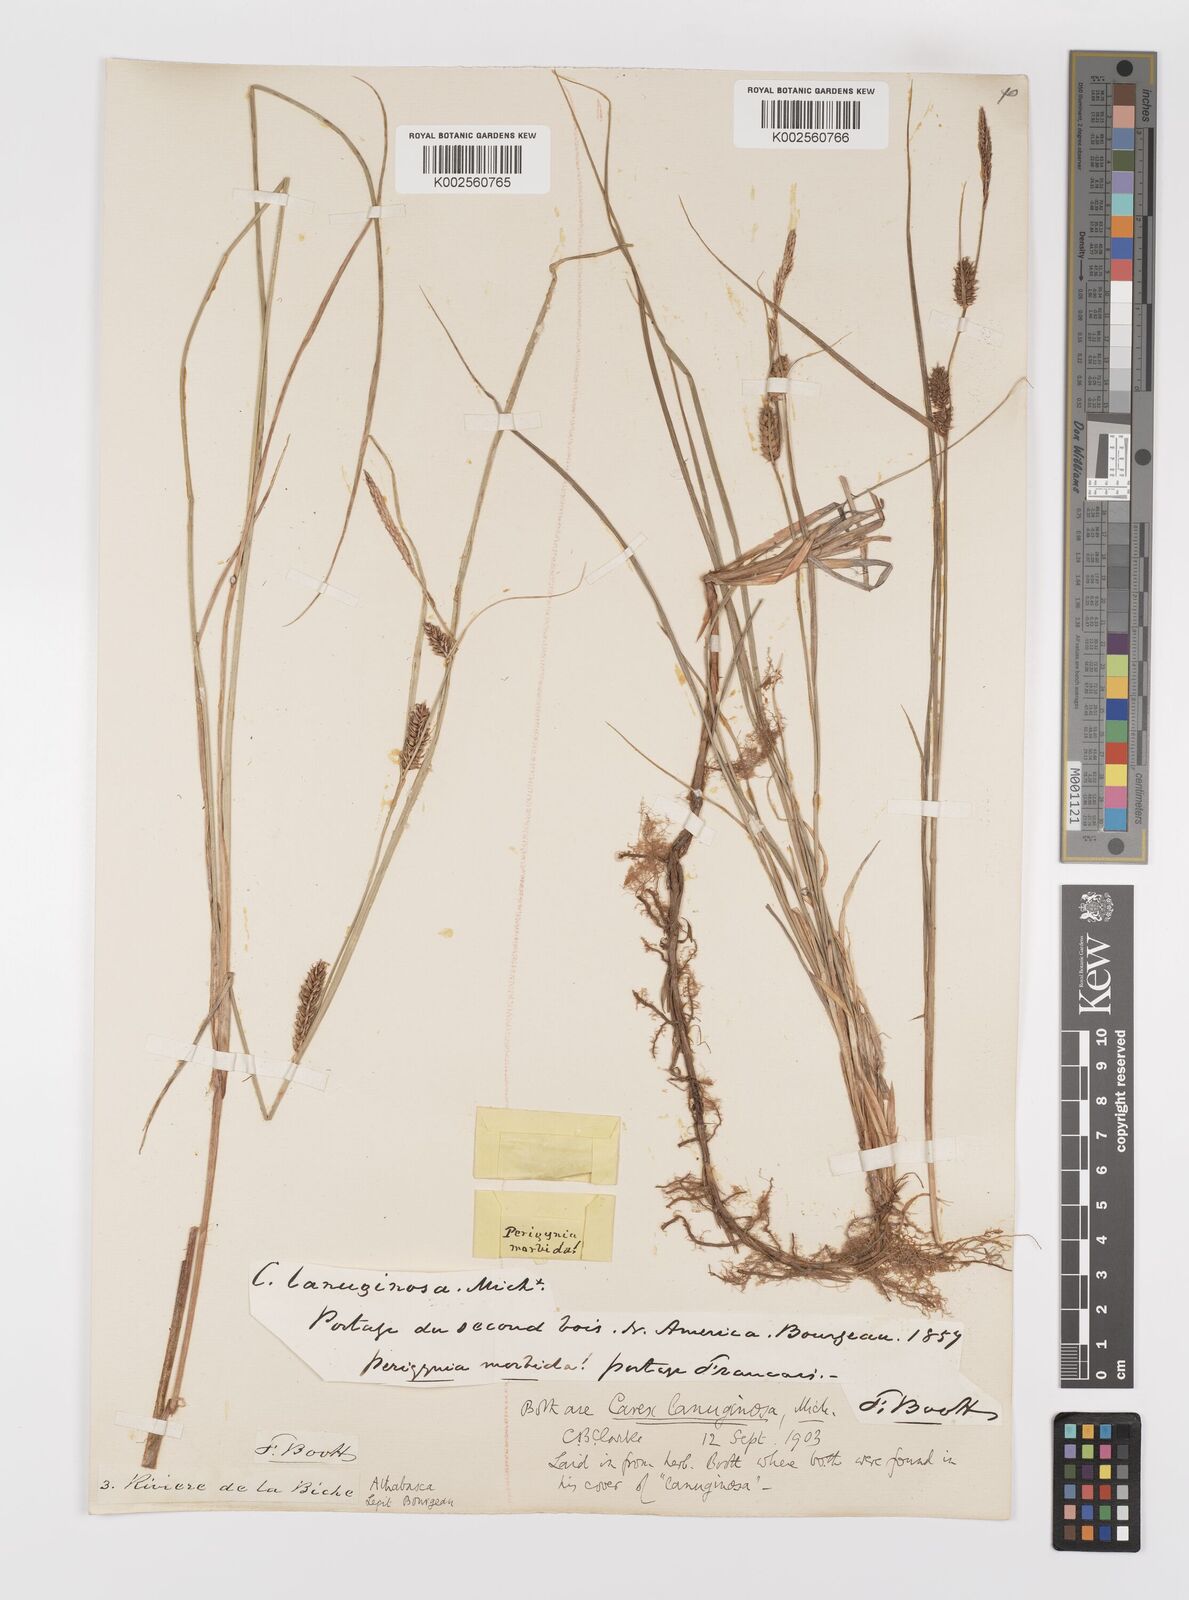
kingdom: Plantae
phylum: Tracheophyta
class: Liliopsida
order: Poales
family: Cyperaceae
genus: Carex
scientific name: Carex lasiocarpa
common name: Slender sedge
